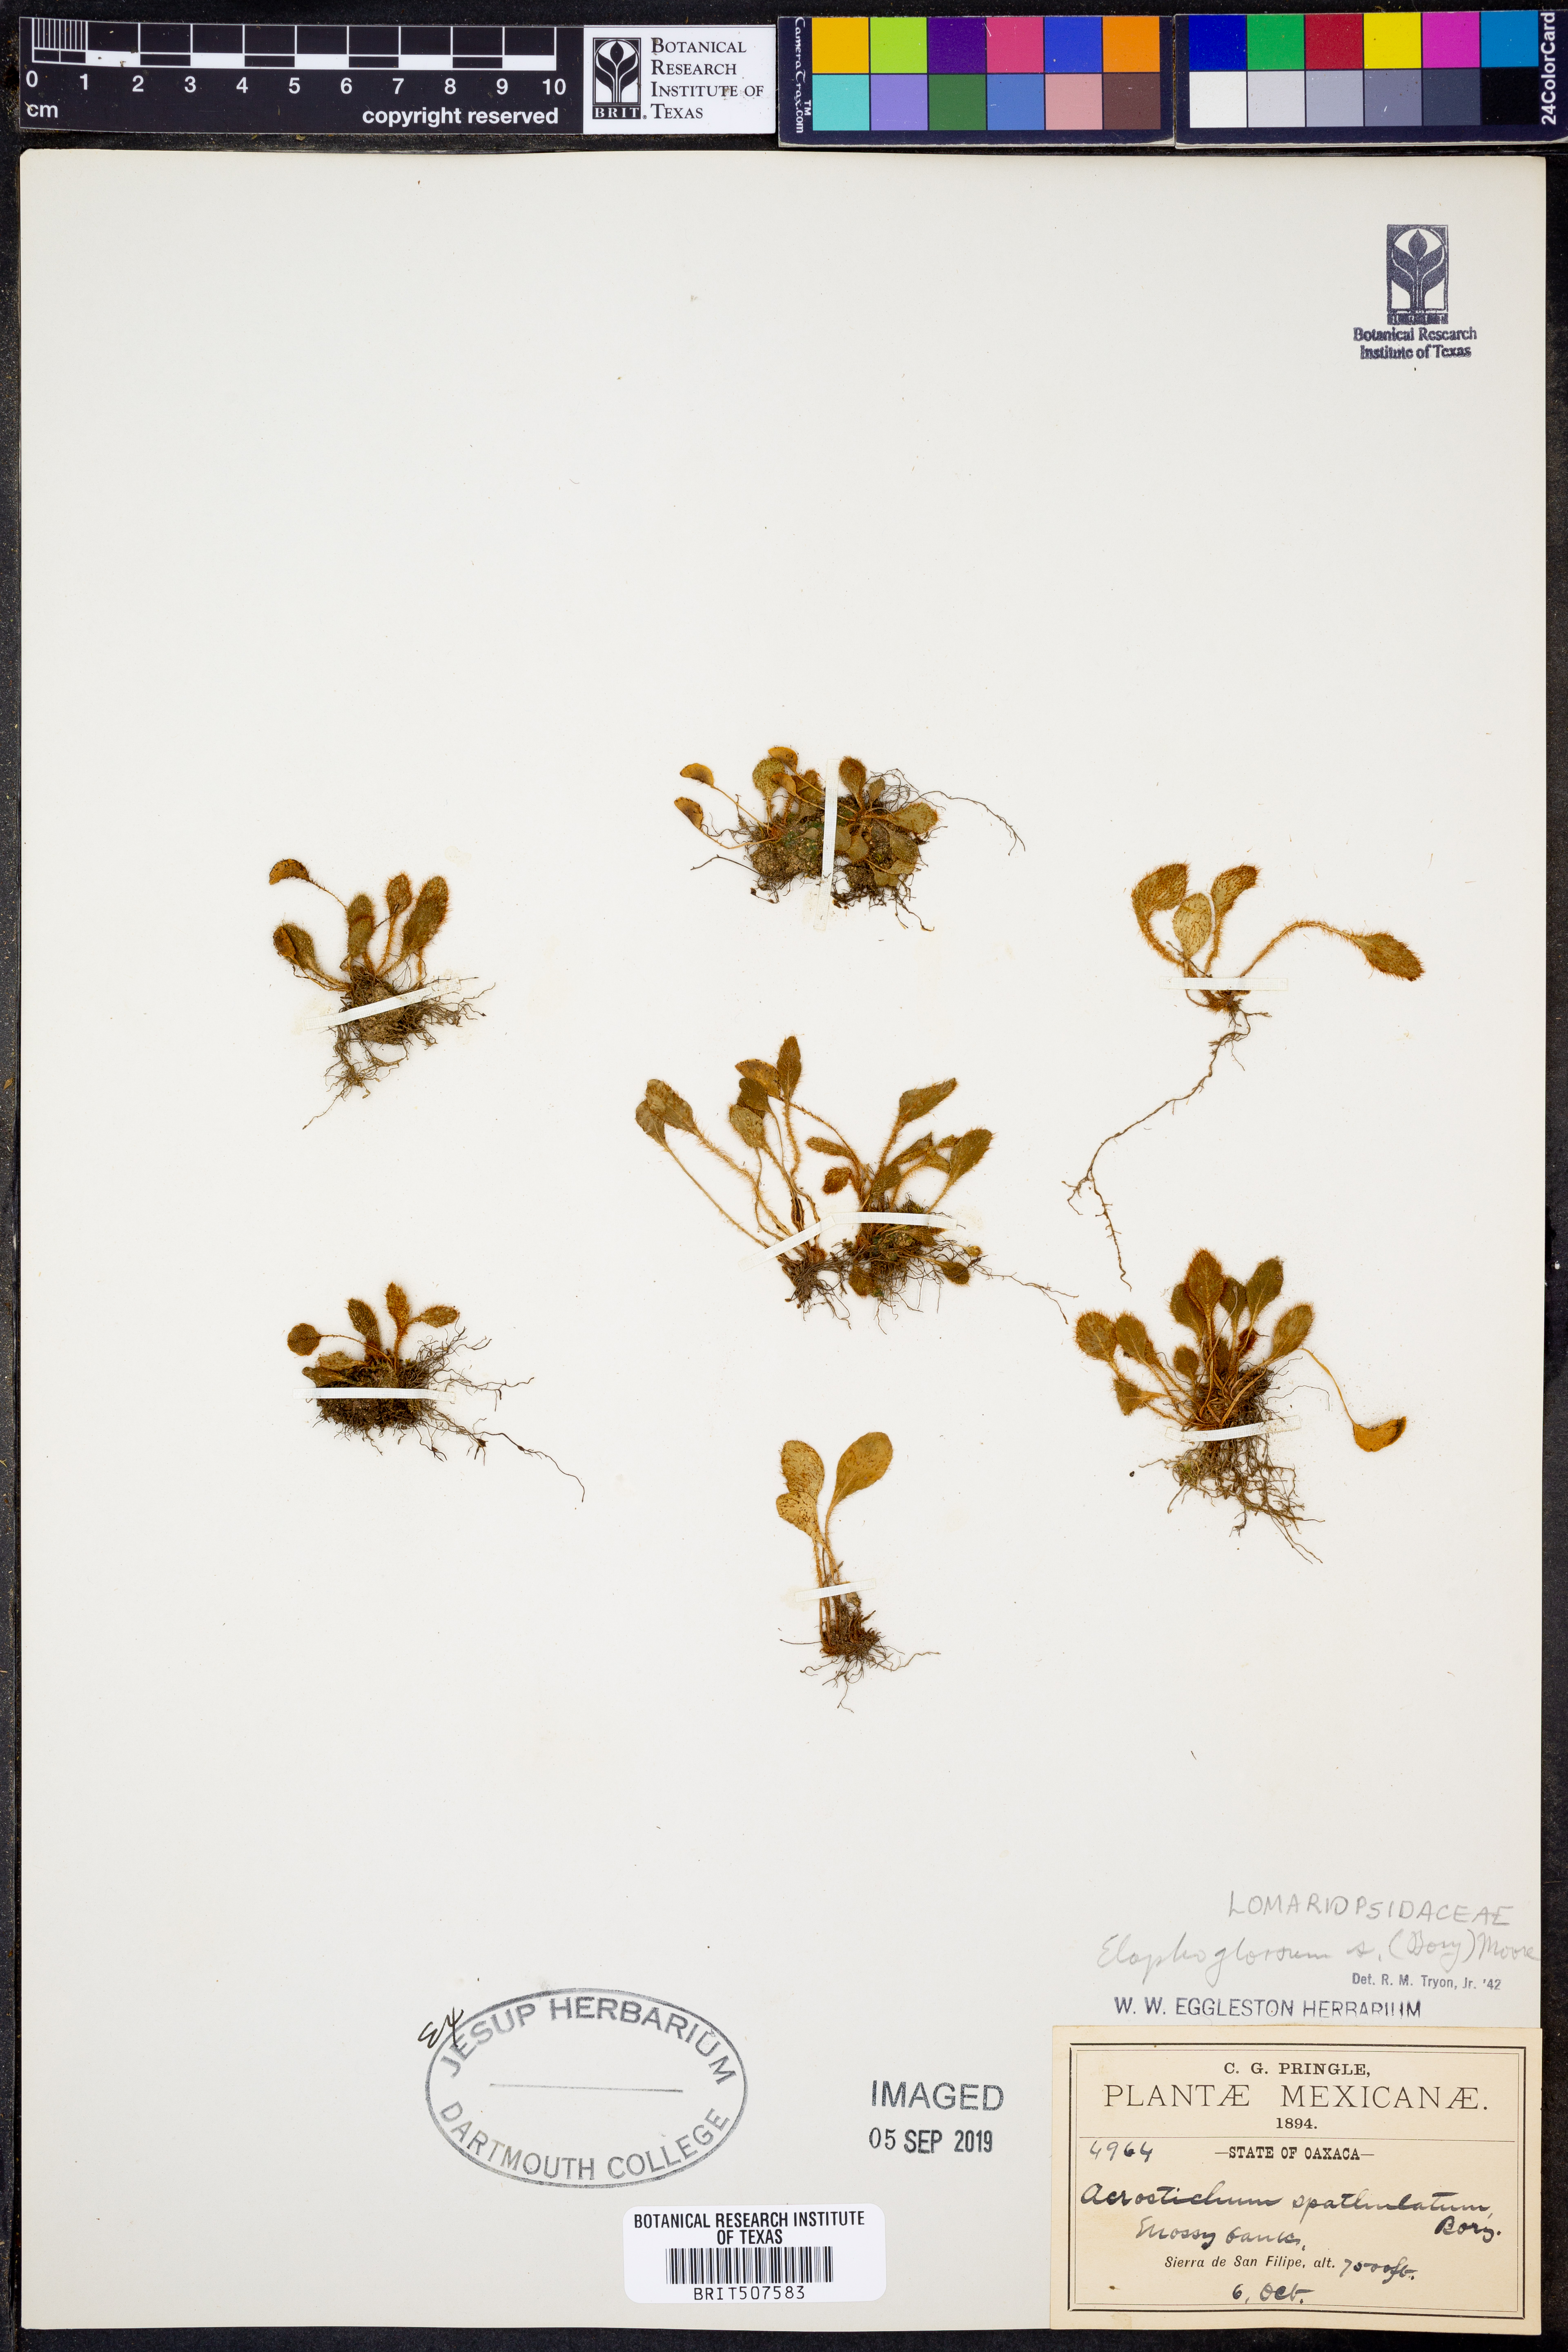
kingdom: Plantae
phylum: Tracheophyta
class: Polypodiopsida
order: Polypodiales
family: Dryopteridaceae
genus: Elaphoglossum
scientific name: Elaphoglossum spatulatum
